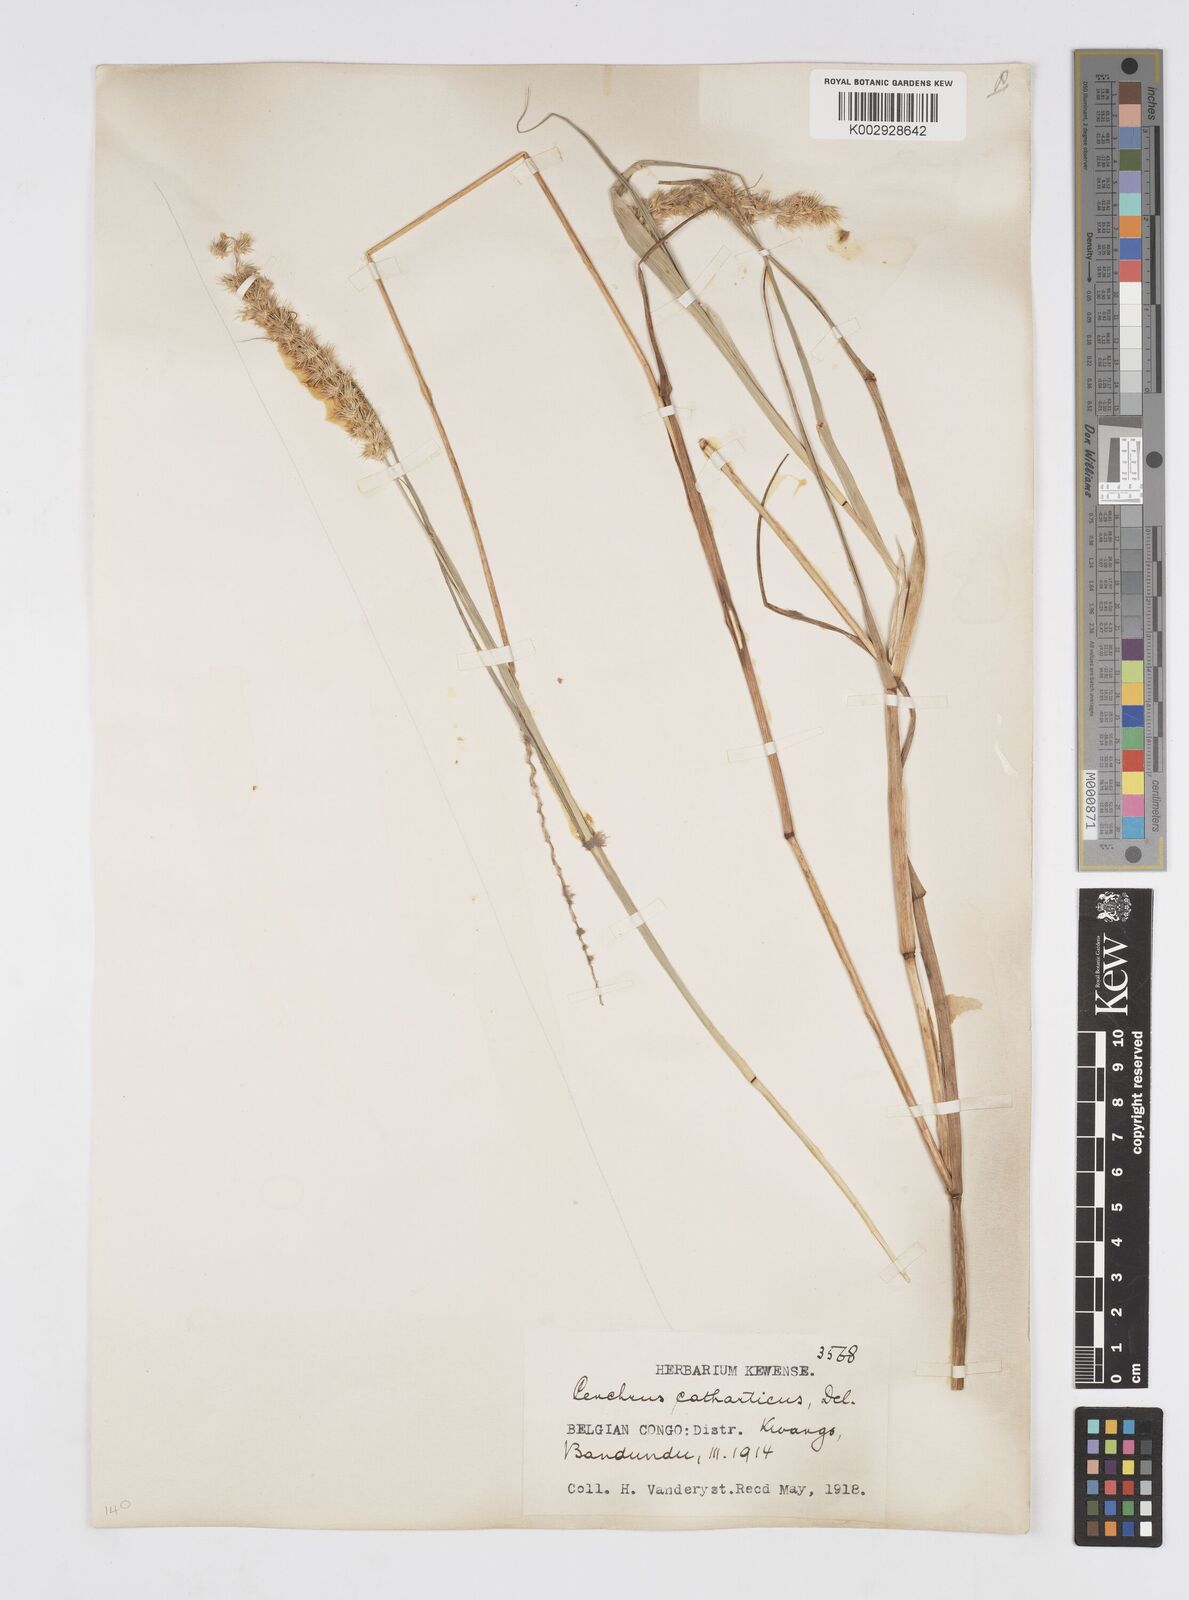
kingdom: Plantae
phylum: Tracheophyta
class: Liliopsida
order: Poales
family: Poaceae
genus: Cenchrus
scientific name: Cenchrus biflorus
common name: Indian sandbur
